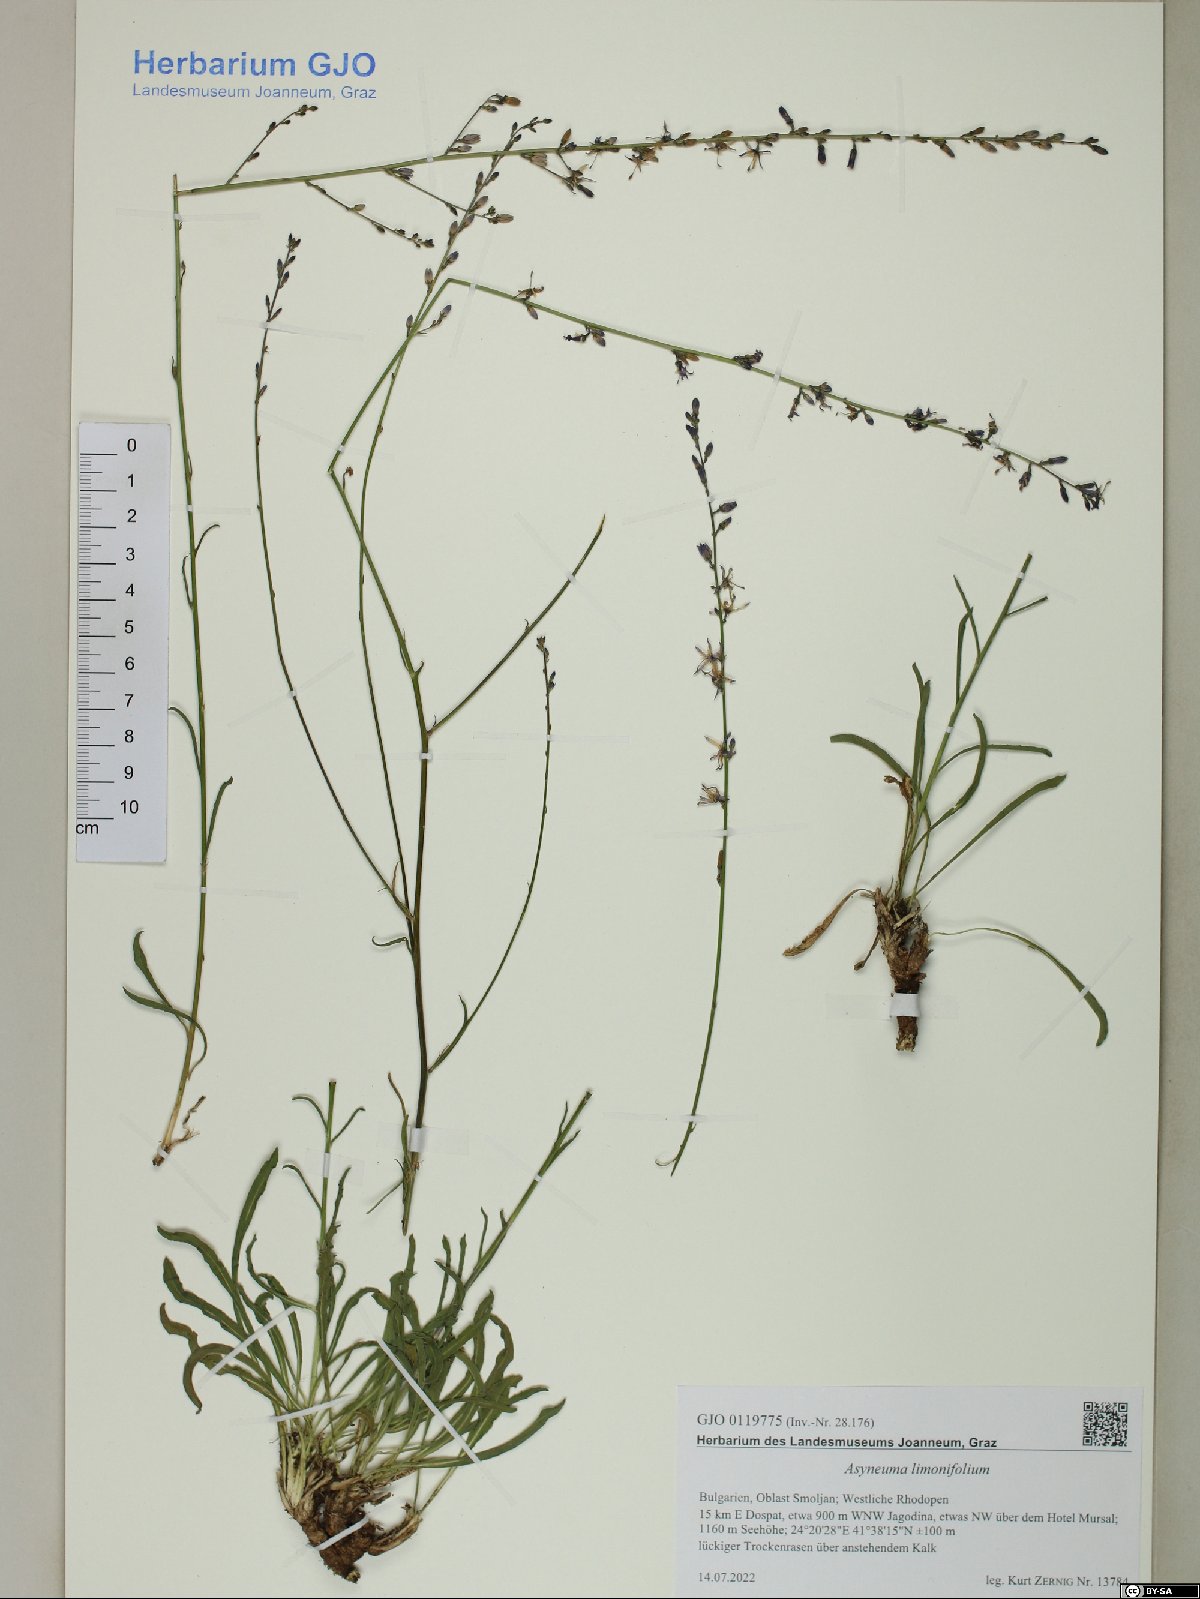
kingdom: Plantae
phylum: Tracheophyta
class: Magnoliopsida
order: Asterales
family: Campanulaceae
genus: Asyneuma
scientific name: Asyneuma limonifolium
